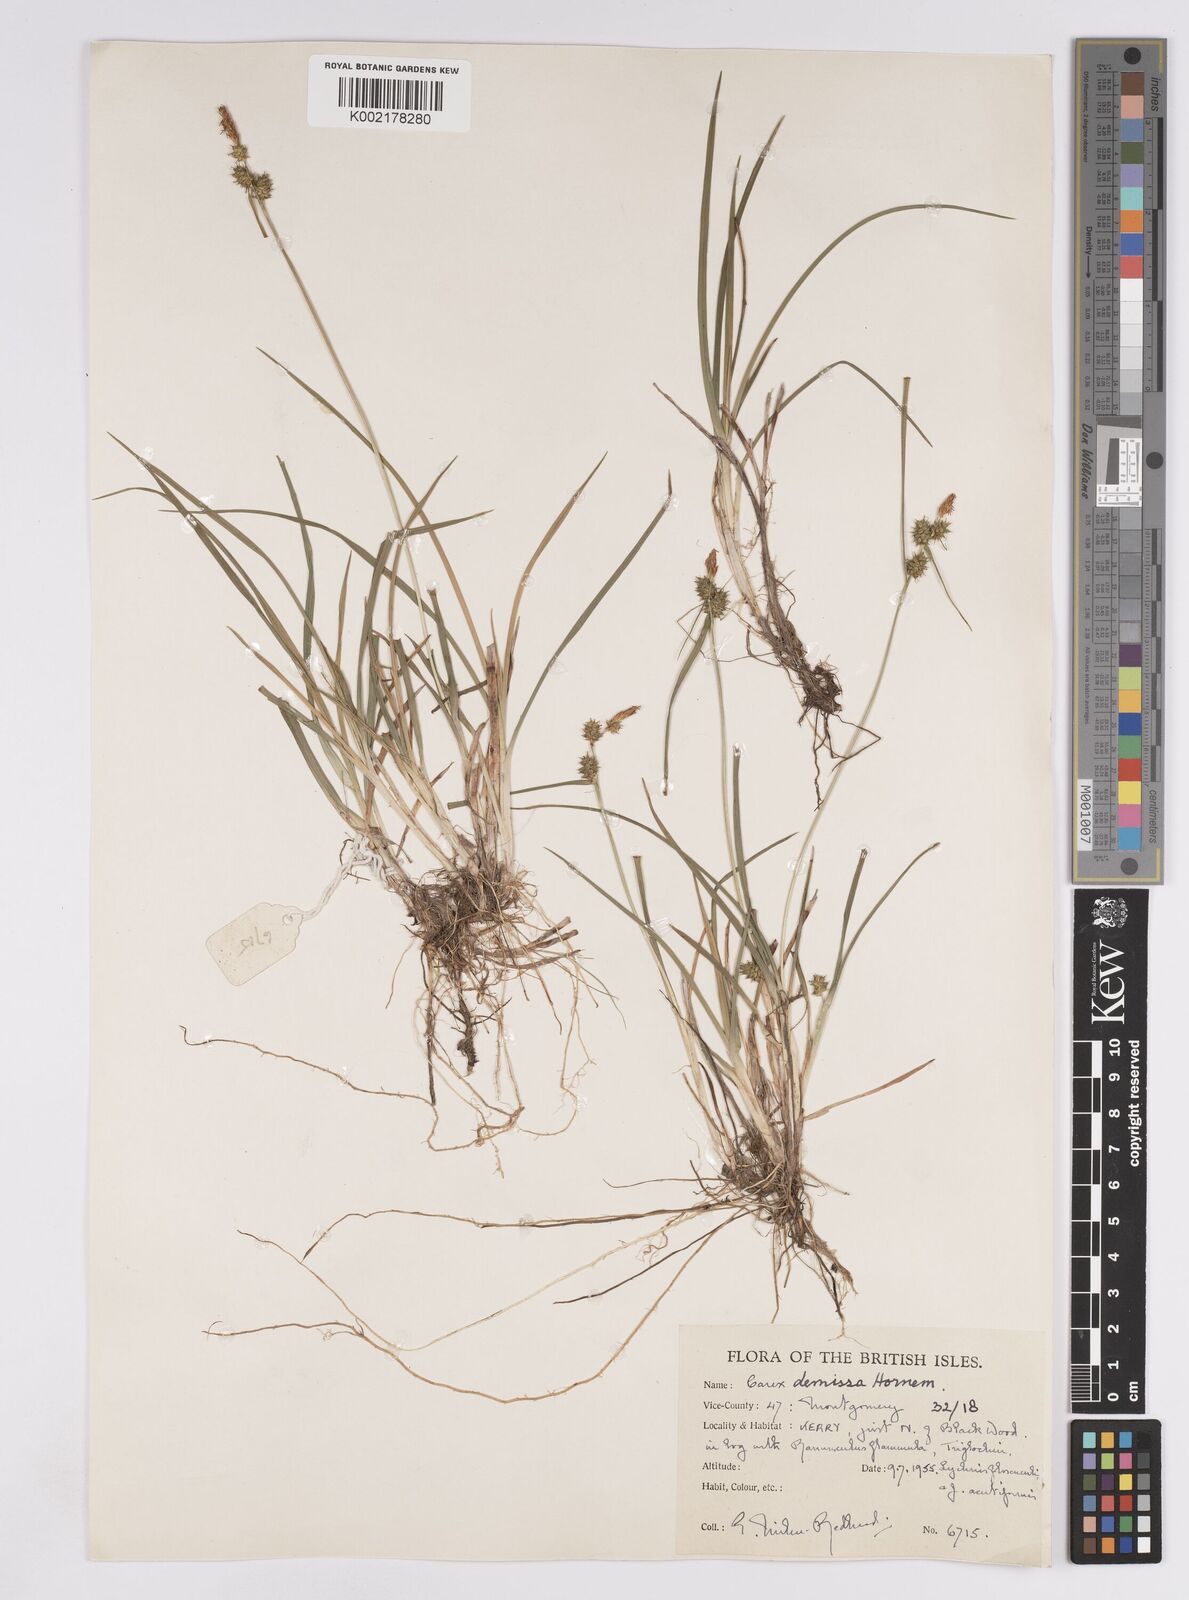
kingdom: Plantae
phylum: Tracheophyta
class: Liliopsida
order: Poales
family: Cyperaceae
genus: Carex
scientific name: Carex demissa
